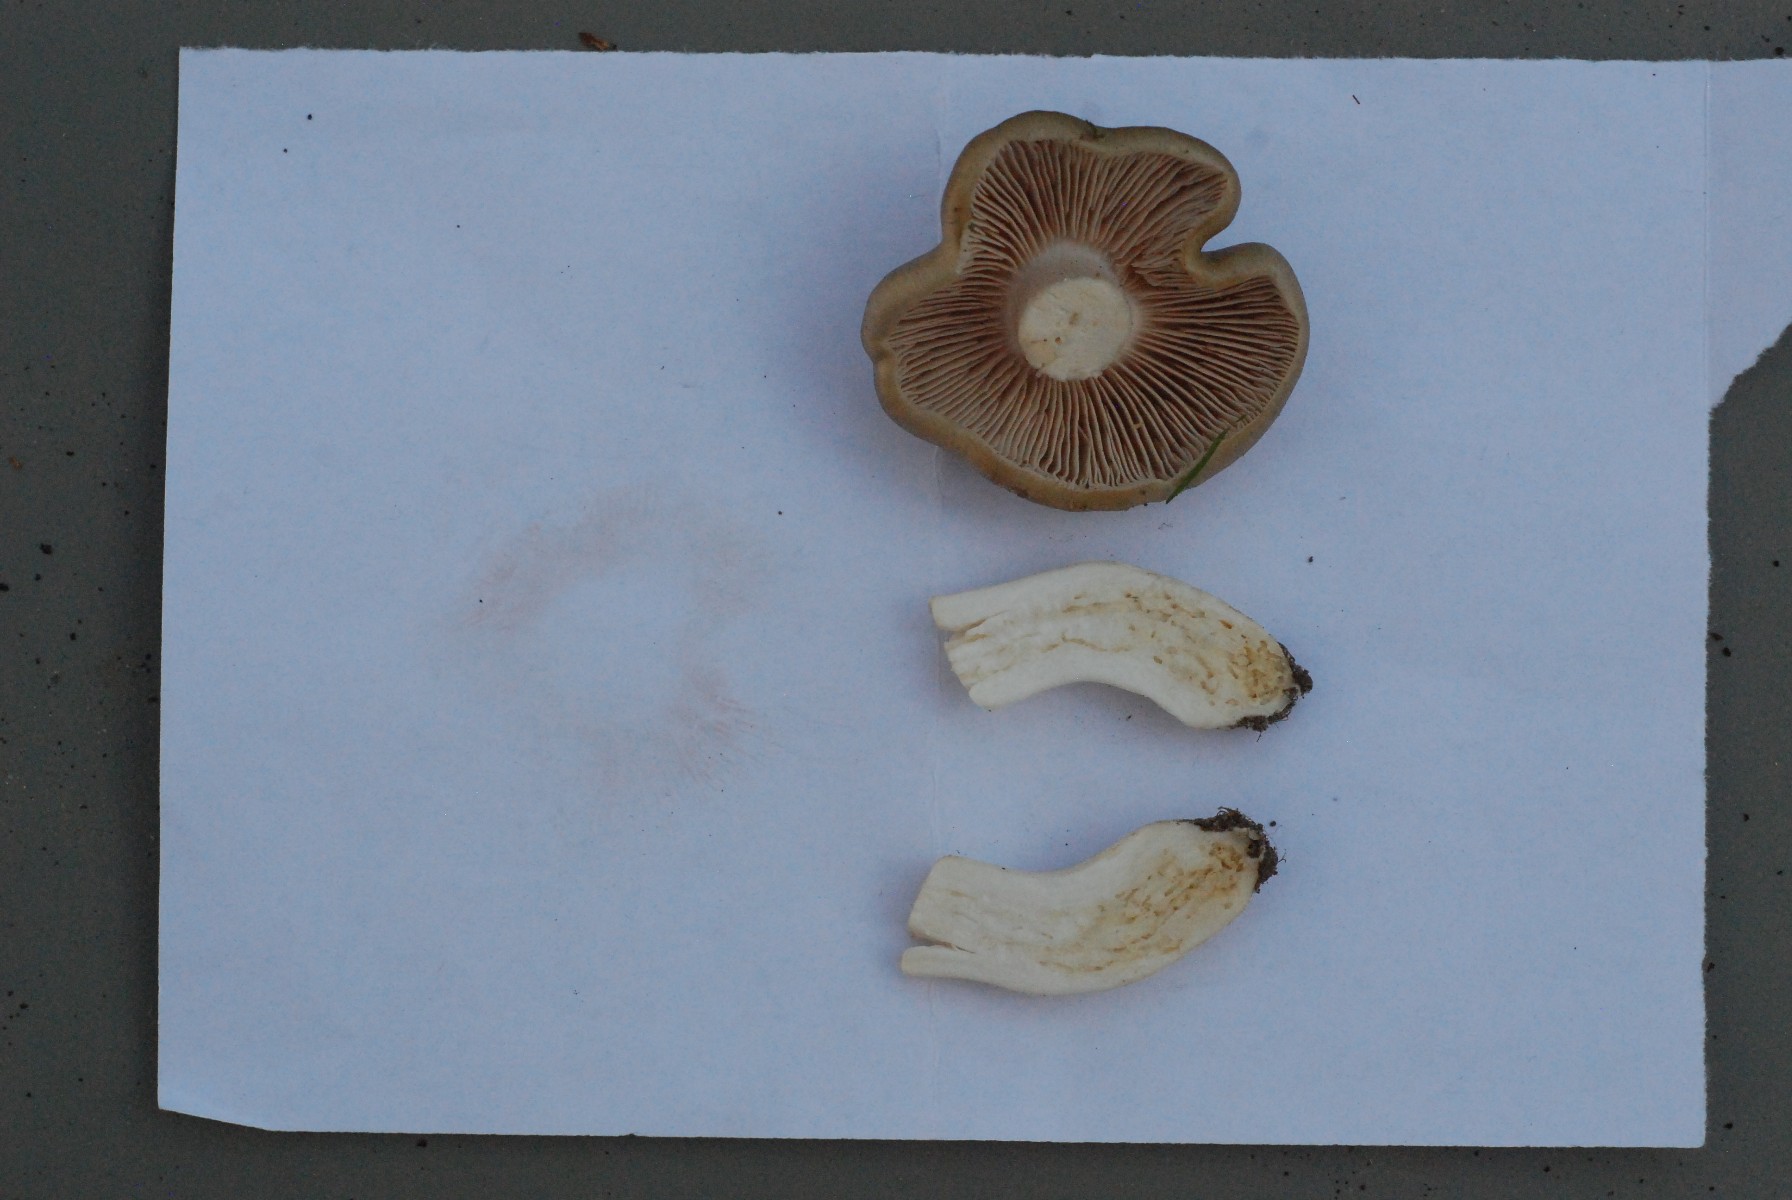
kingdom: Fungi
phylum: Basidiomycota
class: Agaricomycetes
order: Agaricales
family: Entolomataceae
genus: Entoloma
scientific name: Entoloma clypeatum
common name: flammet rødblad
